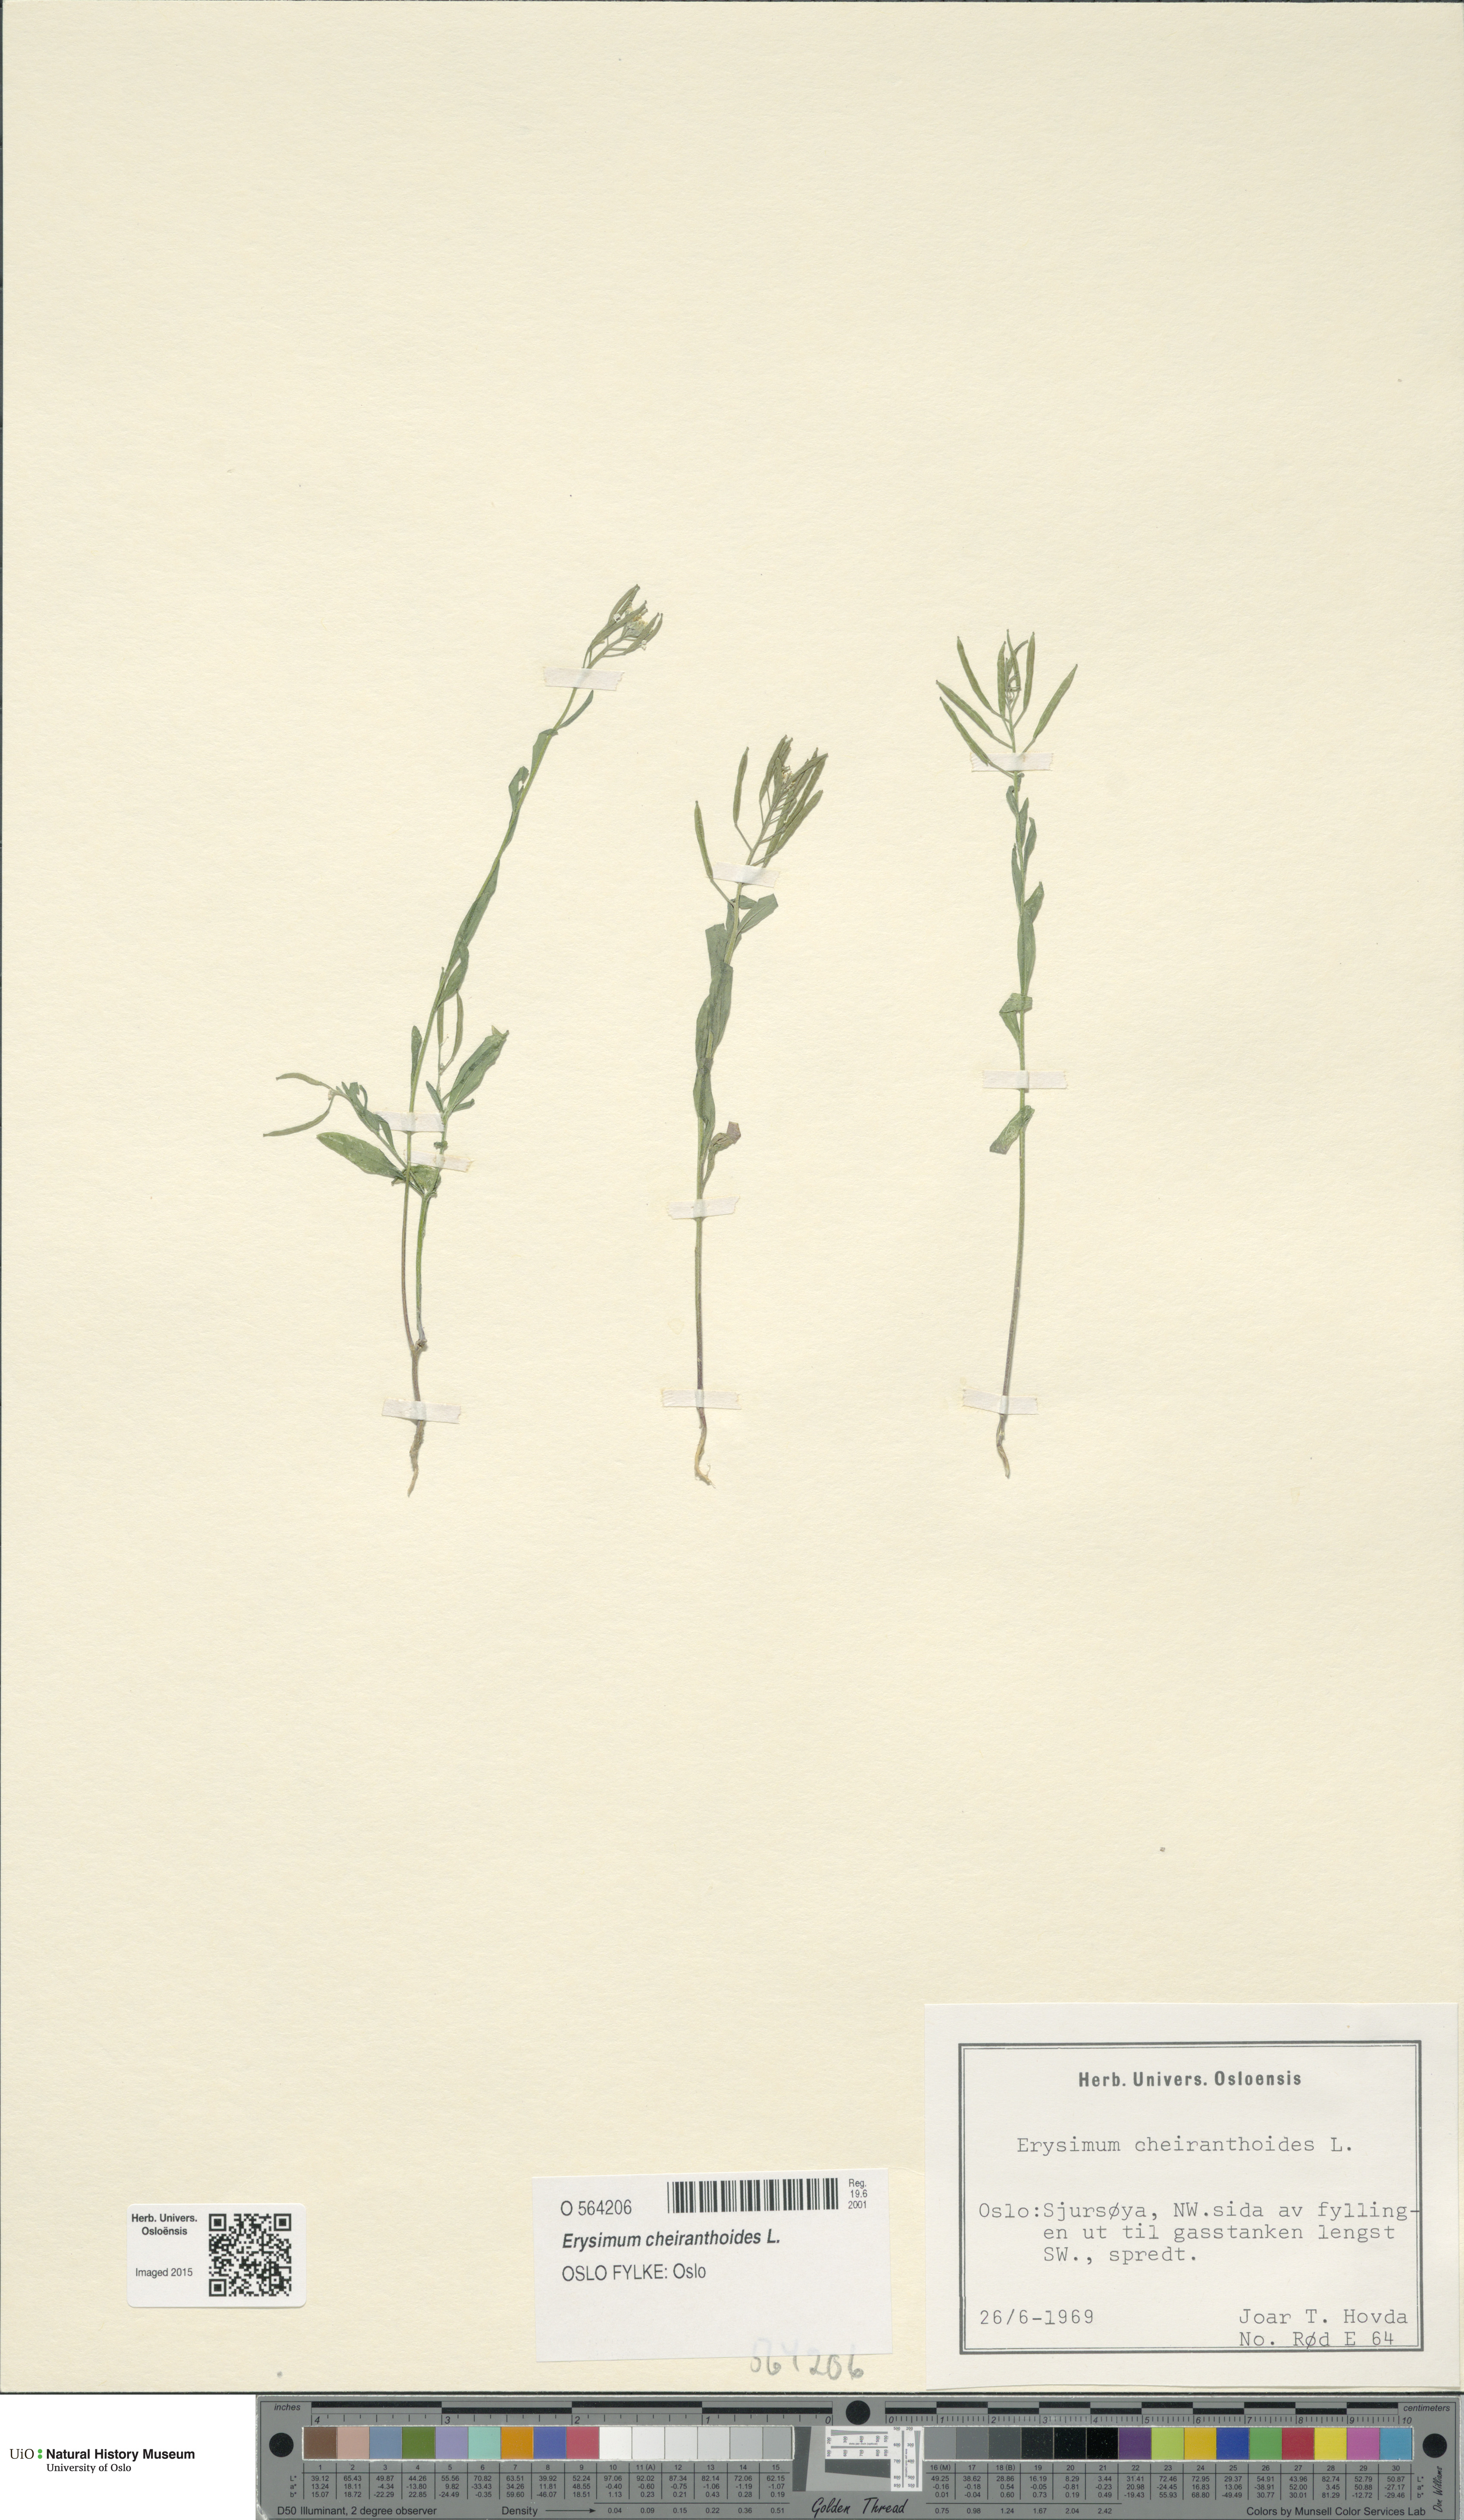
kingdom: Plantae
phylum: Tracheophyta
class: Magnoliopsida
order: Brassicales
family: Brassicaceae
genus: Erysimum
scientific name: Erysimum cheiranthoides
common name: Treacle mustard
